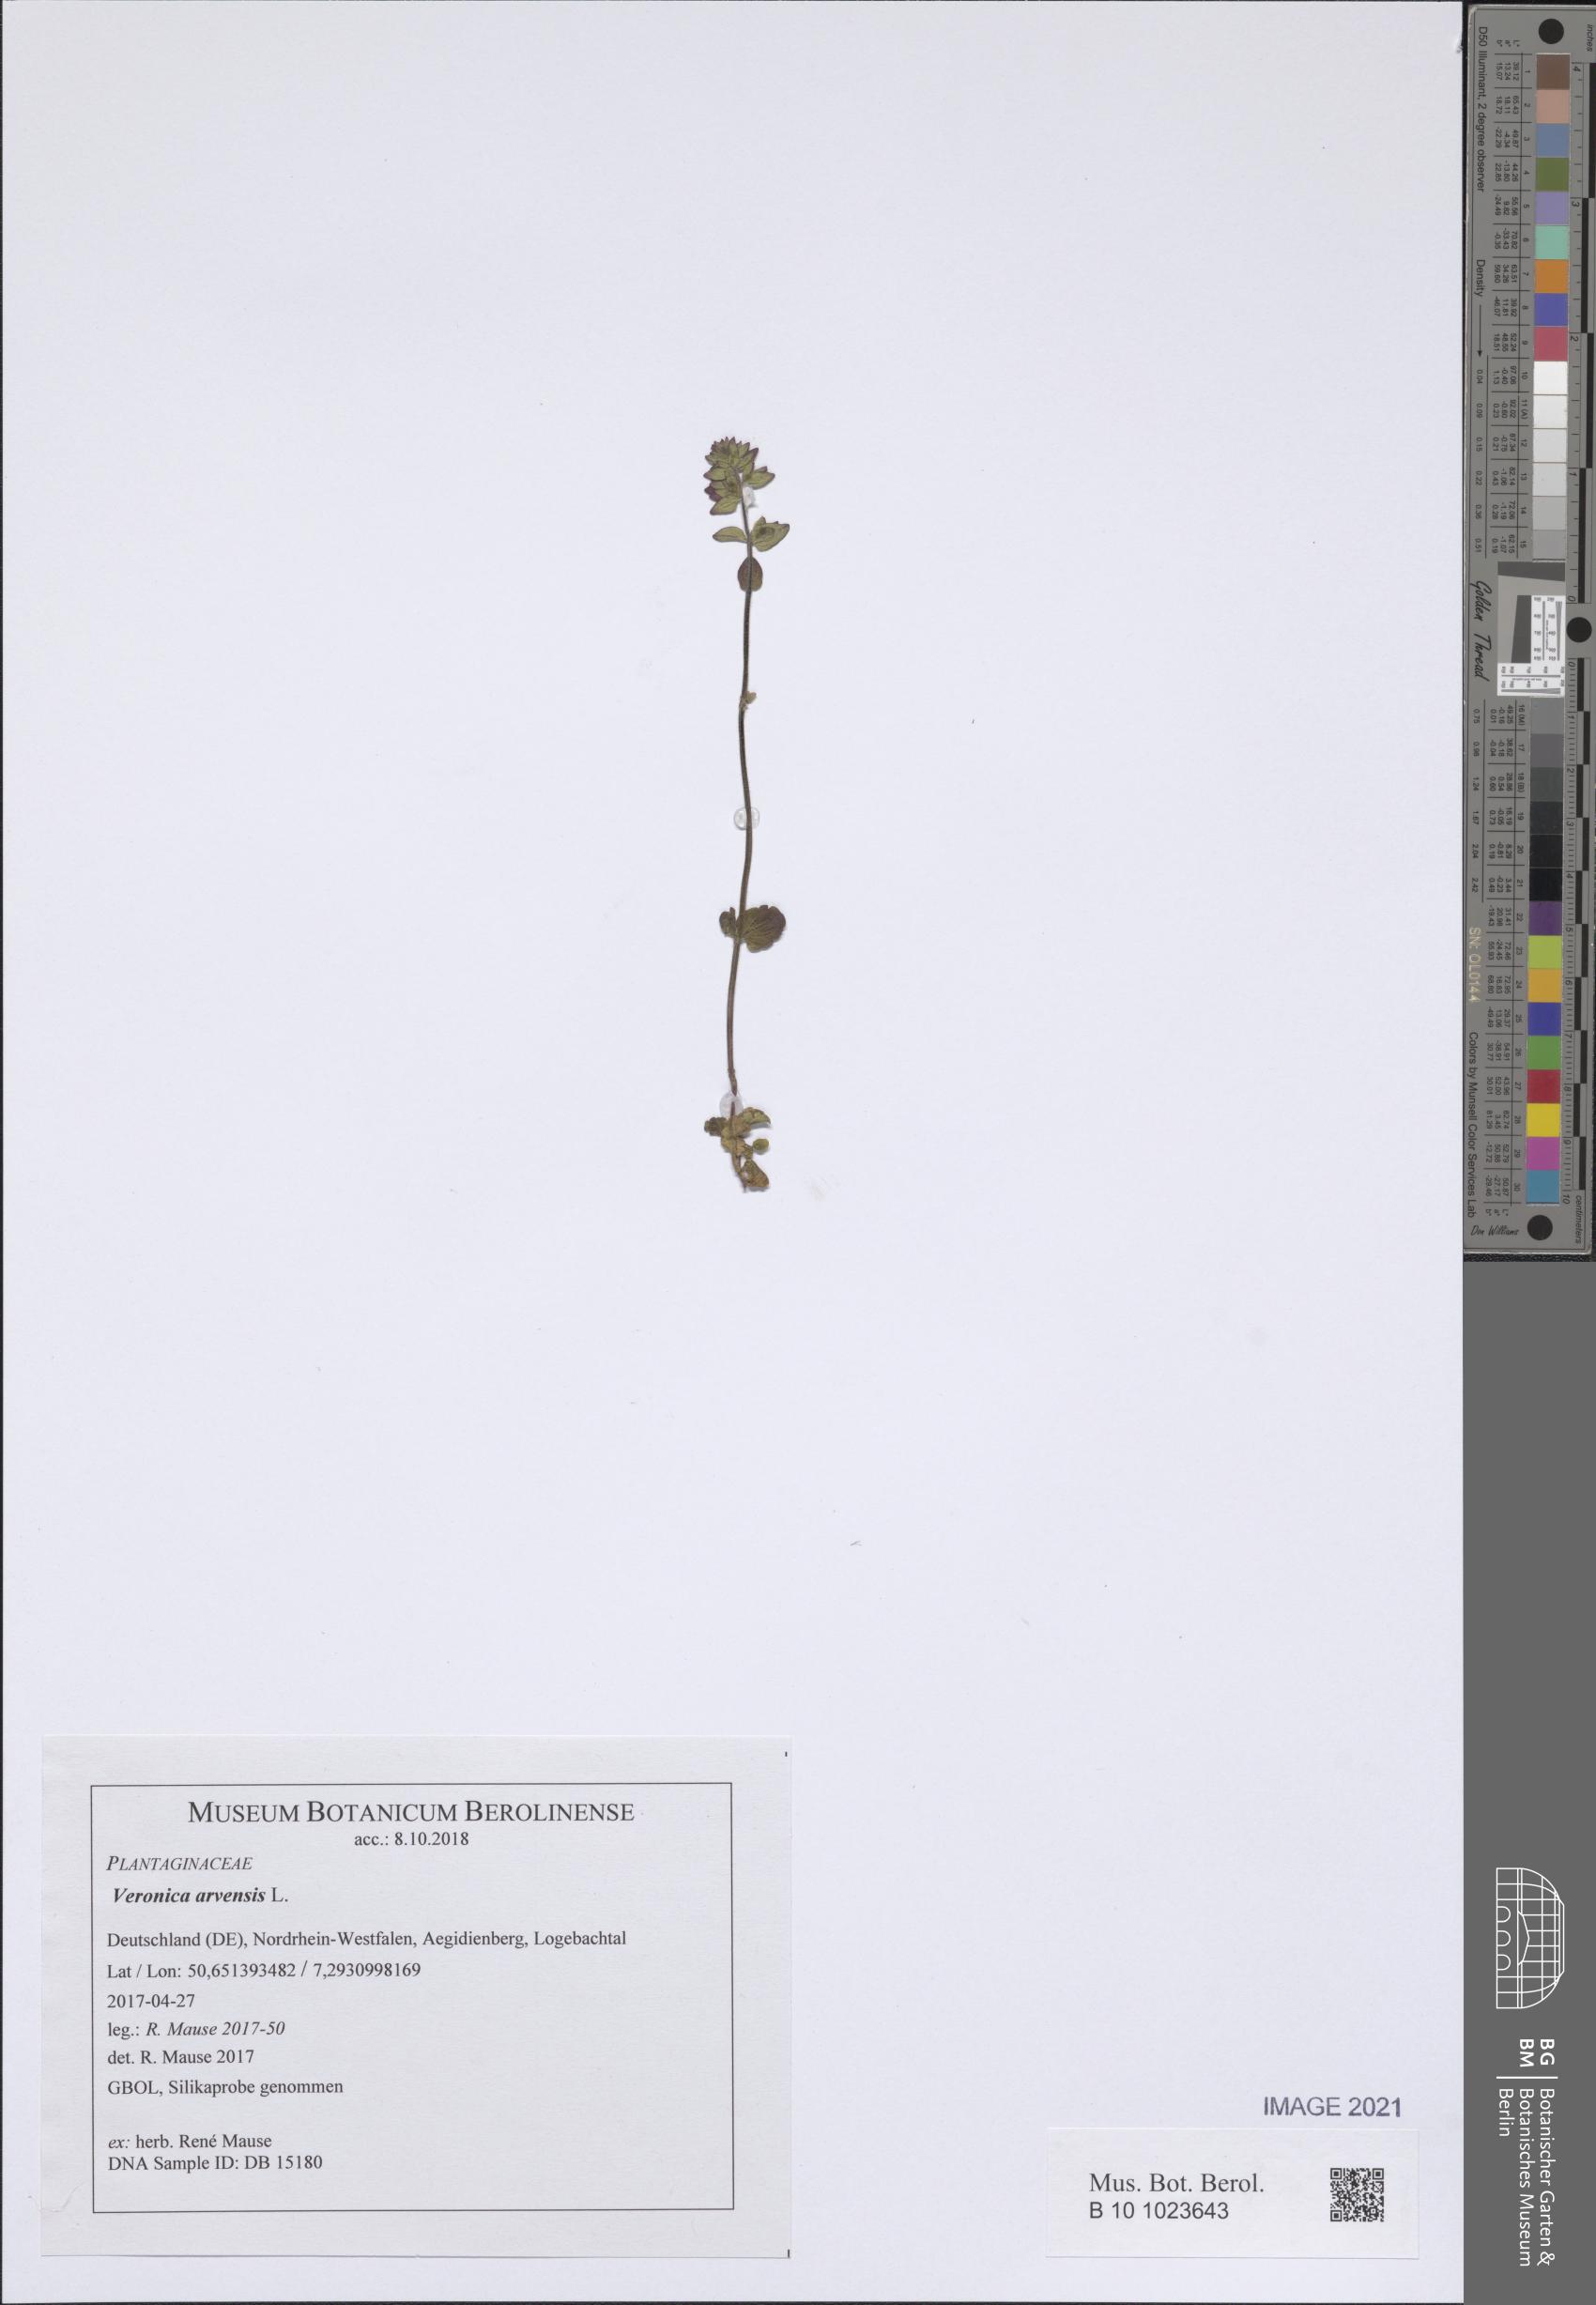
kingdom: Plantae
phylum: Tracheophyta
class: Magnoliopsida
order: Lamiales
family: Plantaginaceae
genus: Veronica
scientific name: Veronica arvensis
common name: Corn speedwell
